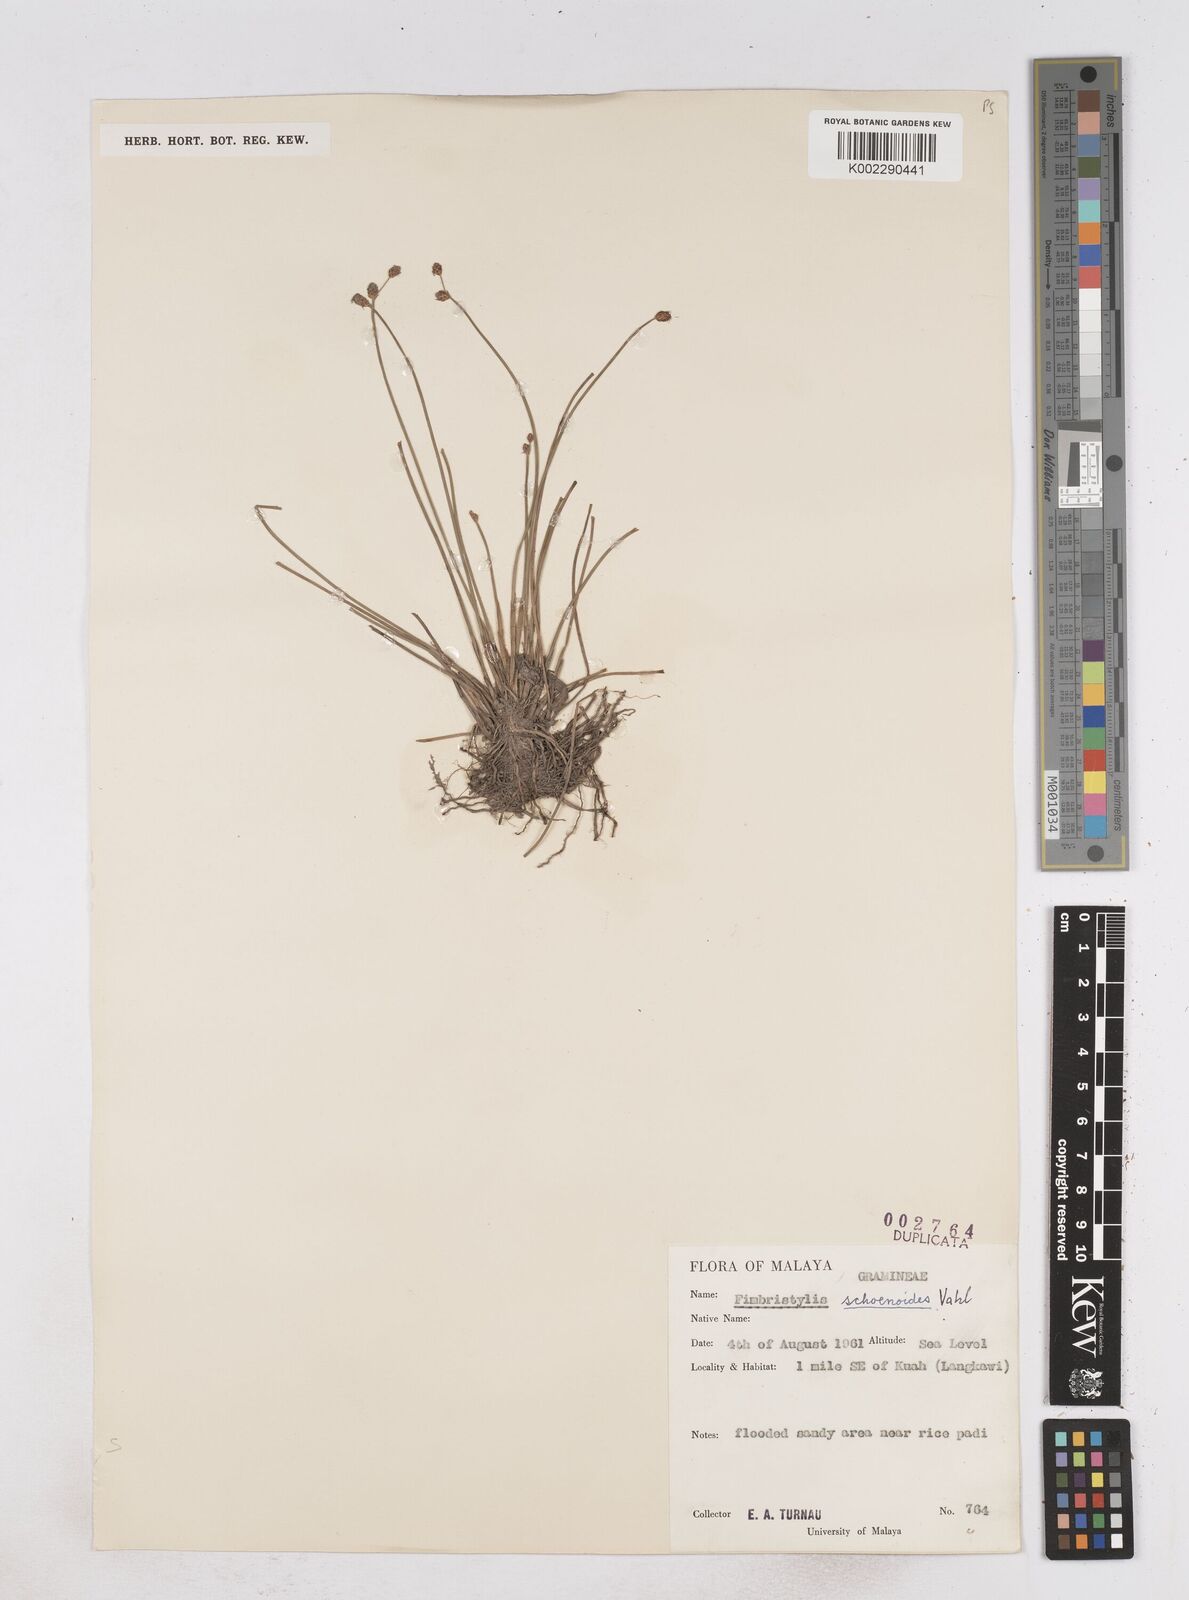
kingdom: Plantae
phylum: Tracheophyta
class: Liliopsida
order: Poales
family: Cyperaceae
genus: Fimbristylis
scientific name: Fimbristylis schoenoides
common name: Ditch fimbry
